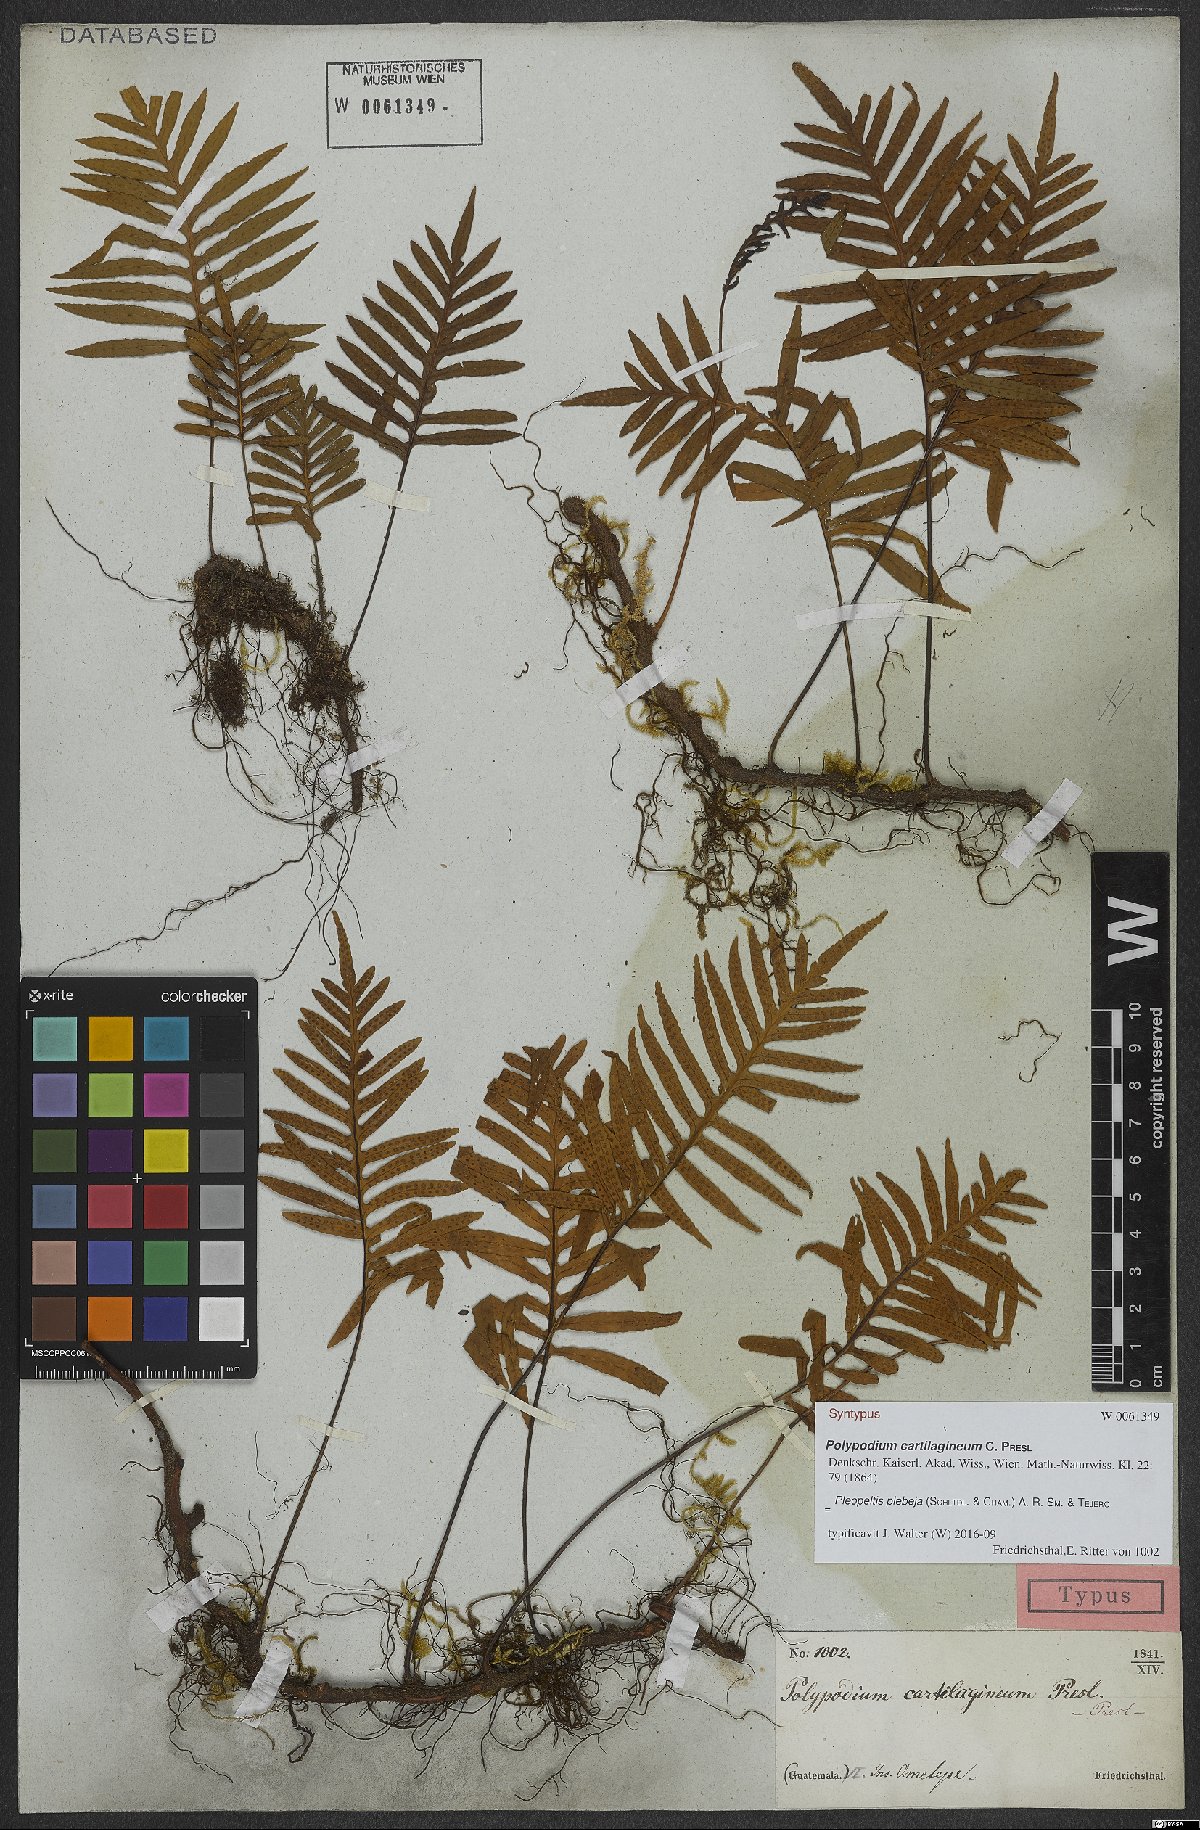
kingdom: Plantae
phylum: Tracheophyta
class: Polypodiopsida
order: Polypodiales
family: Polypodiaceae
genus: Pleopeltis
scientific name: Pleopeltis plebeia
